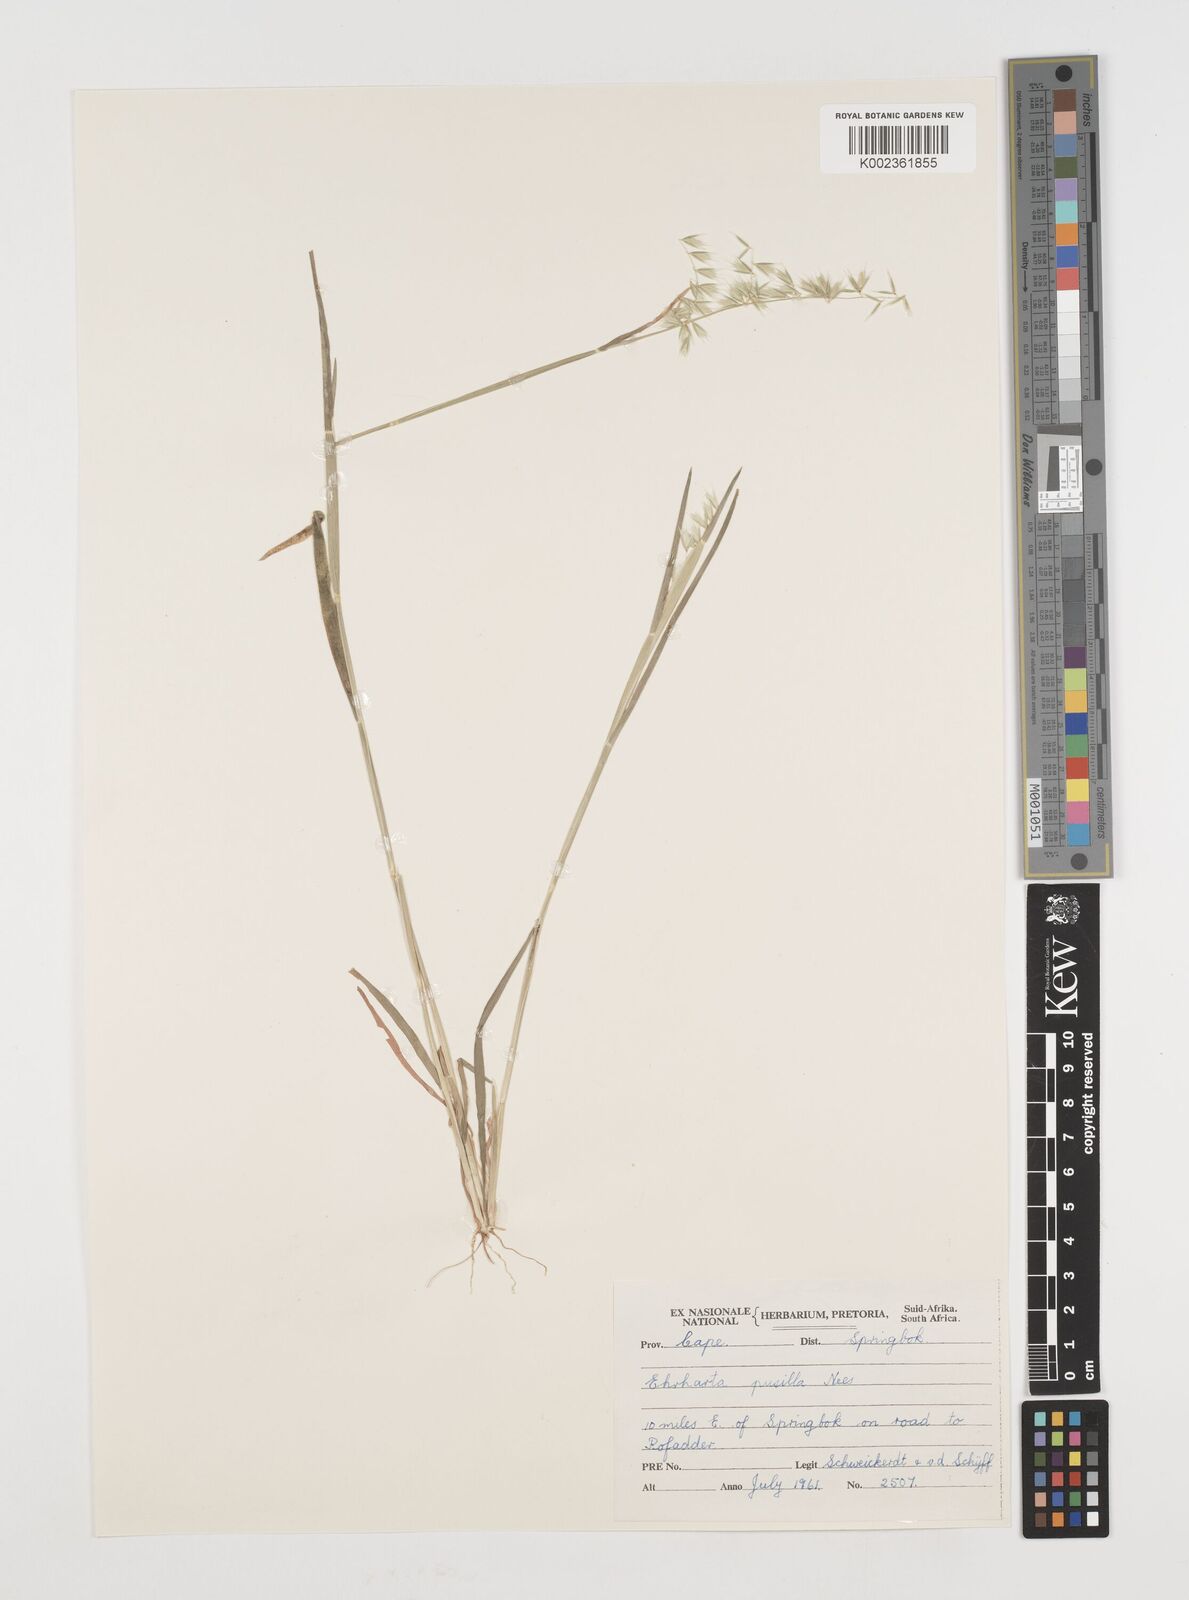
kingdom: Plantae
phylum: Tracheophyta
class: Liliopsida
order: Poales
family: Poaceae
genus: Ehrharta
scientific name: Ehrharta pusilla
